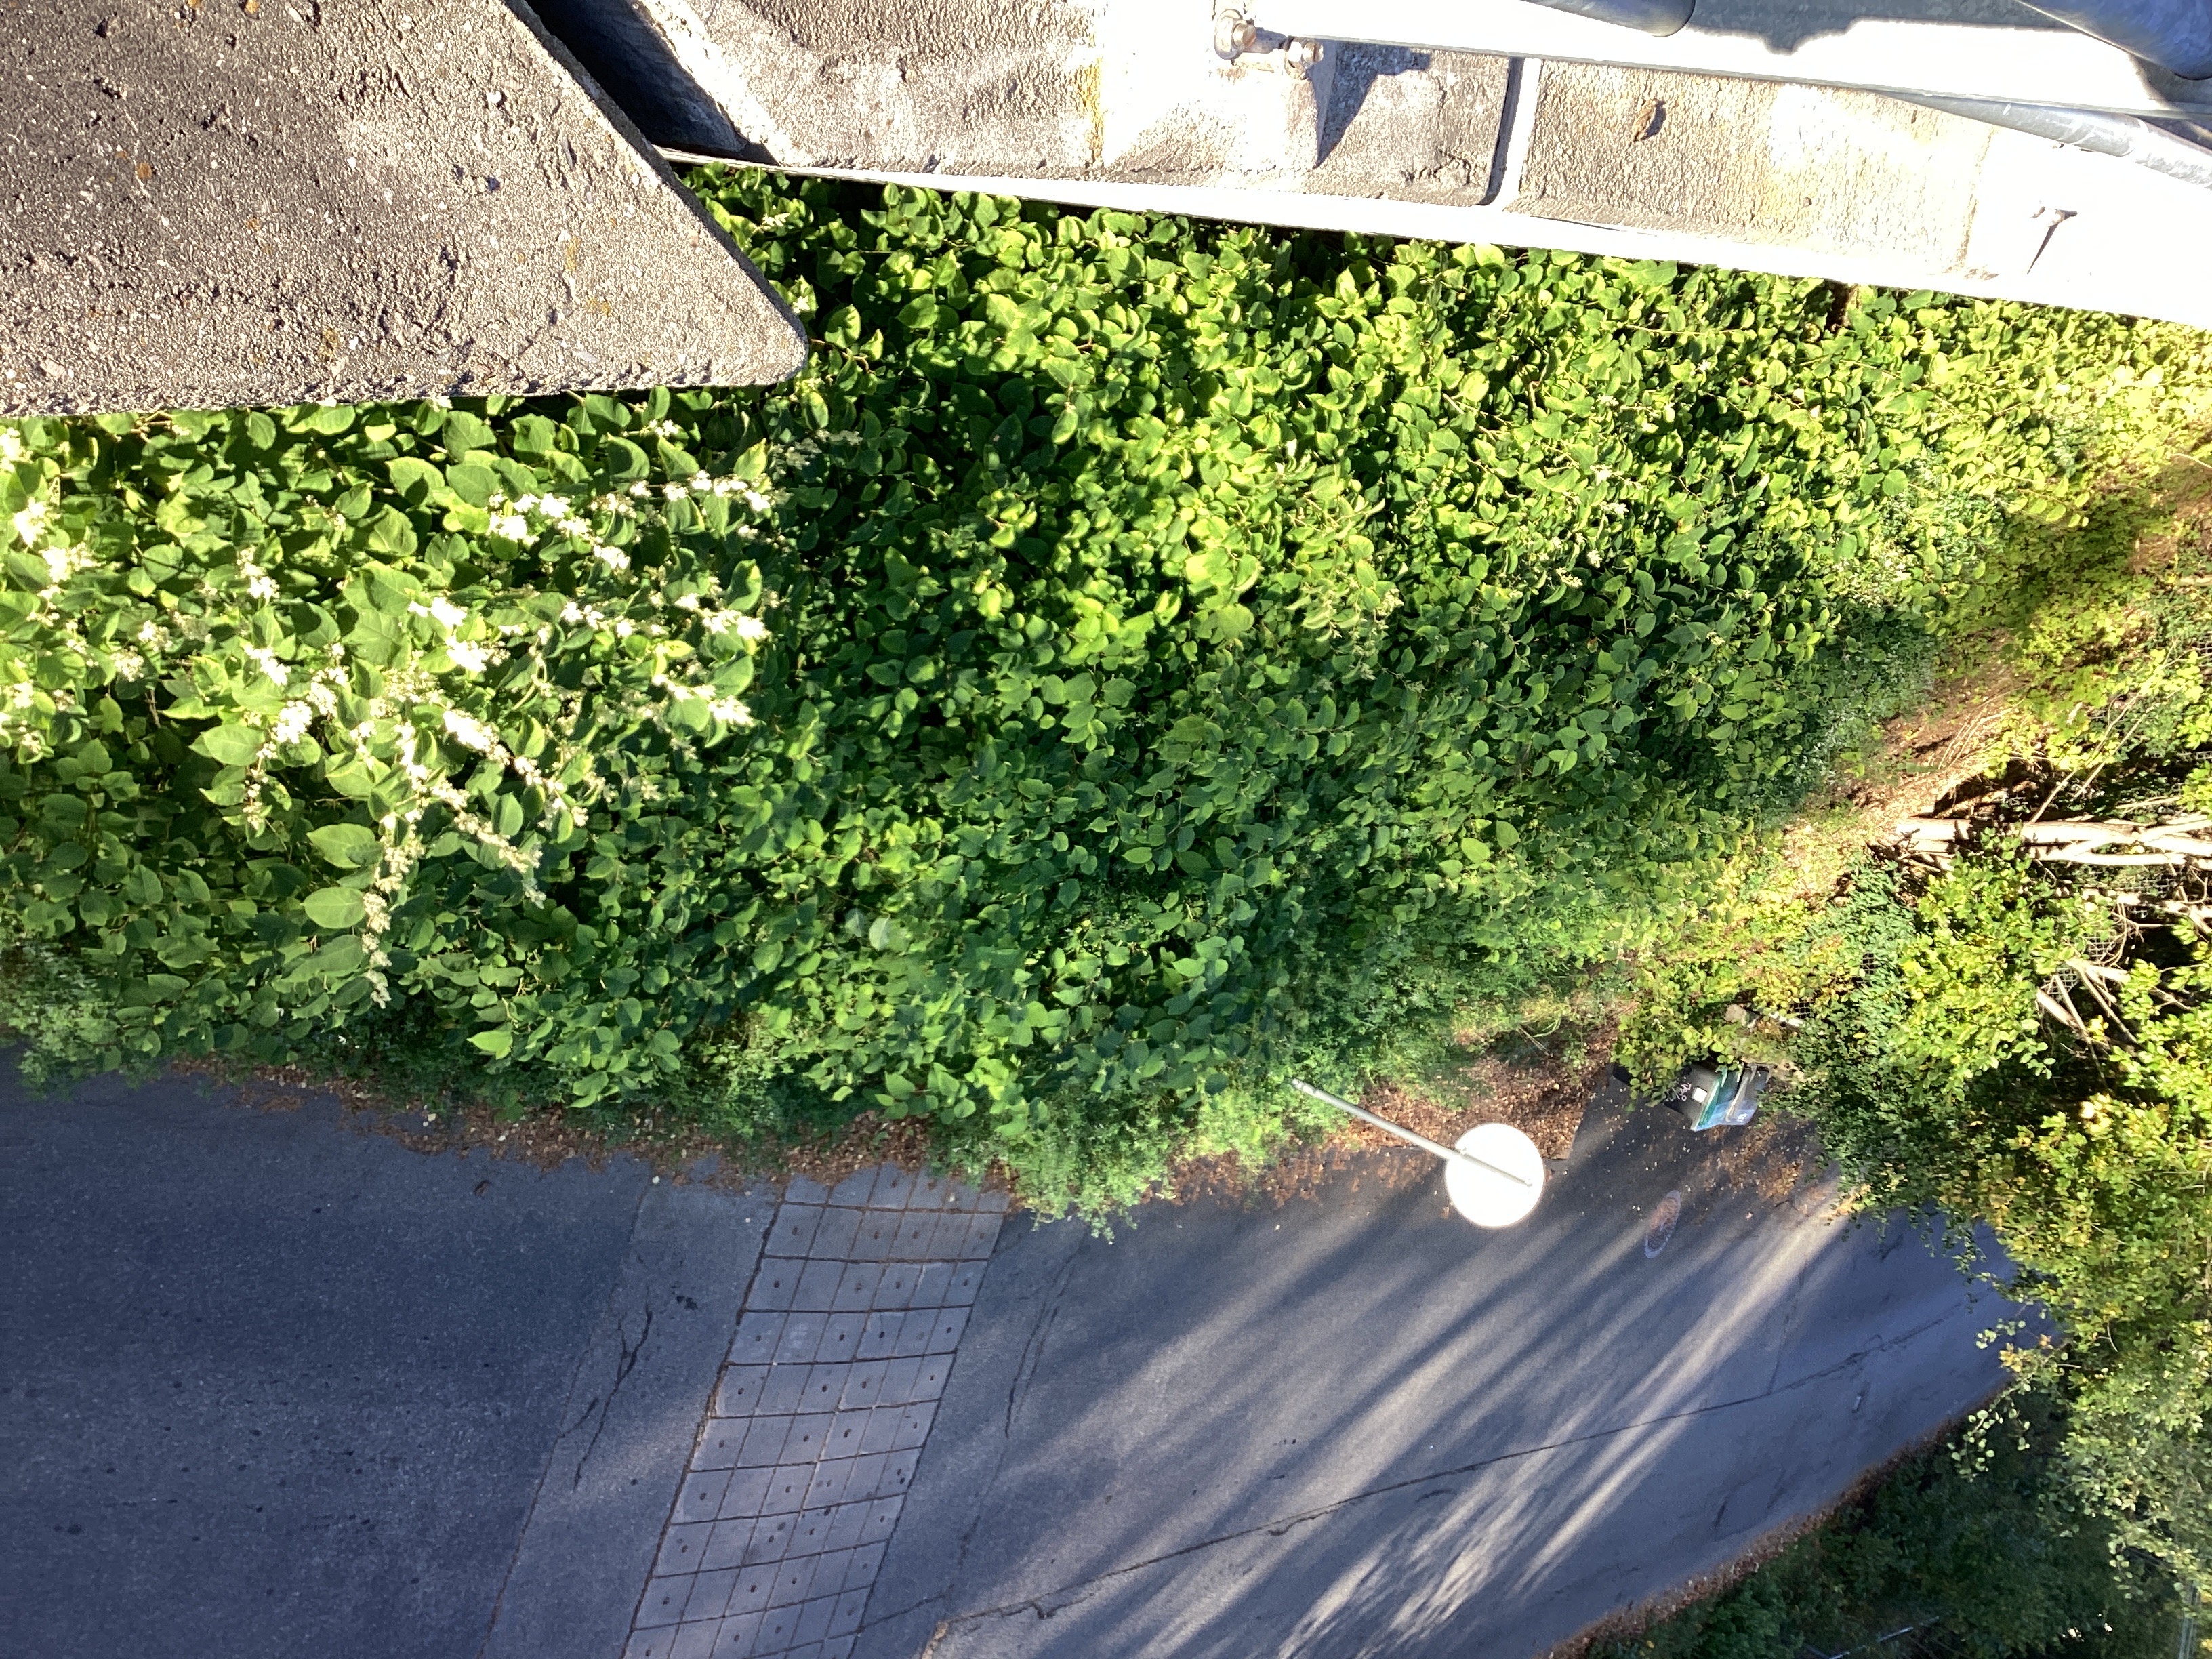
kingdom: Plantae
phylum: Tracheophyta
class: Magnoliopsida
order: Caryophyllales
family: Polygonaceae
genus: Reynoutria
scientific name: Reynoutria bohemica
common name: hybridslirekne
